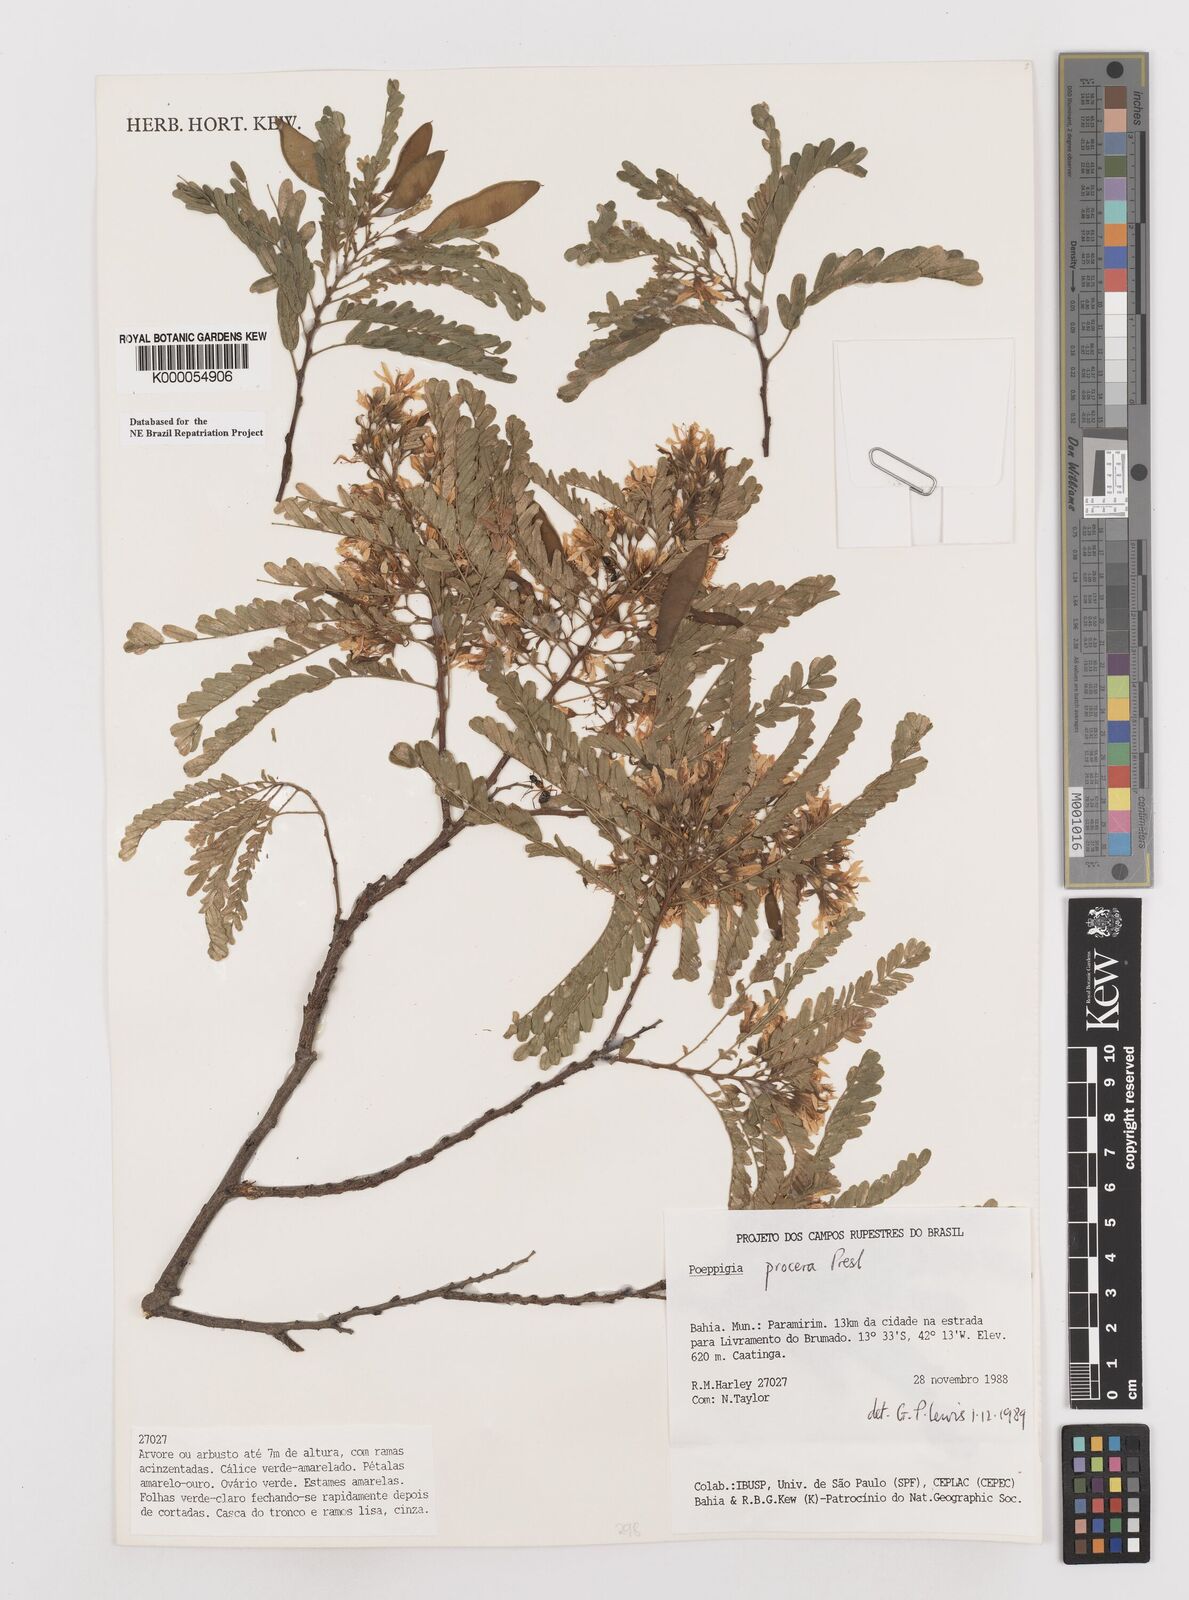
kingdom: Plantae
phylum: Tracheophyta
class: Magnoliopsida
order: Fabales
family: Fabaceae
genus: Poeppigia
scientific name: Poeppigia procera
